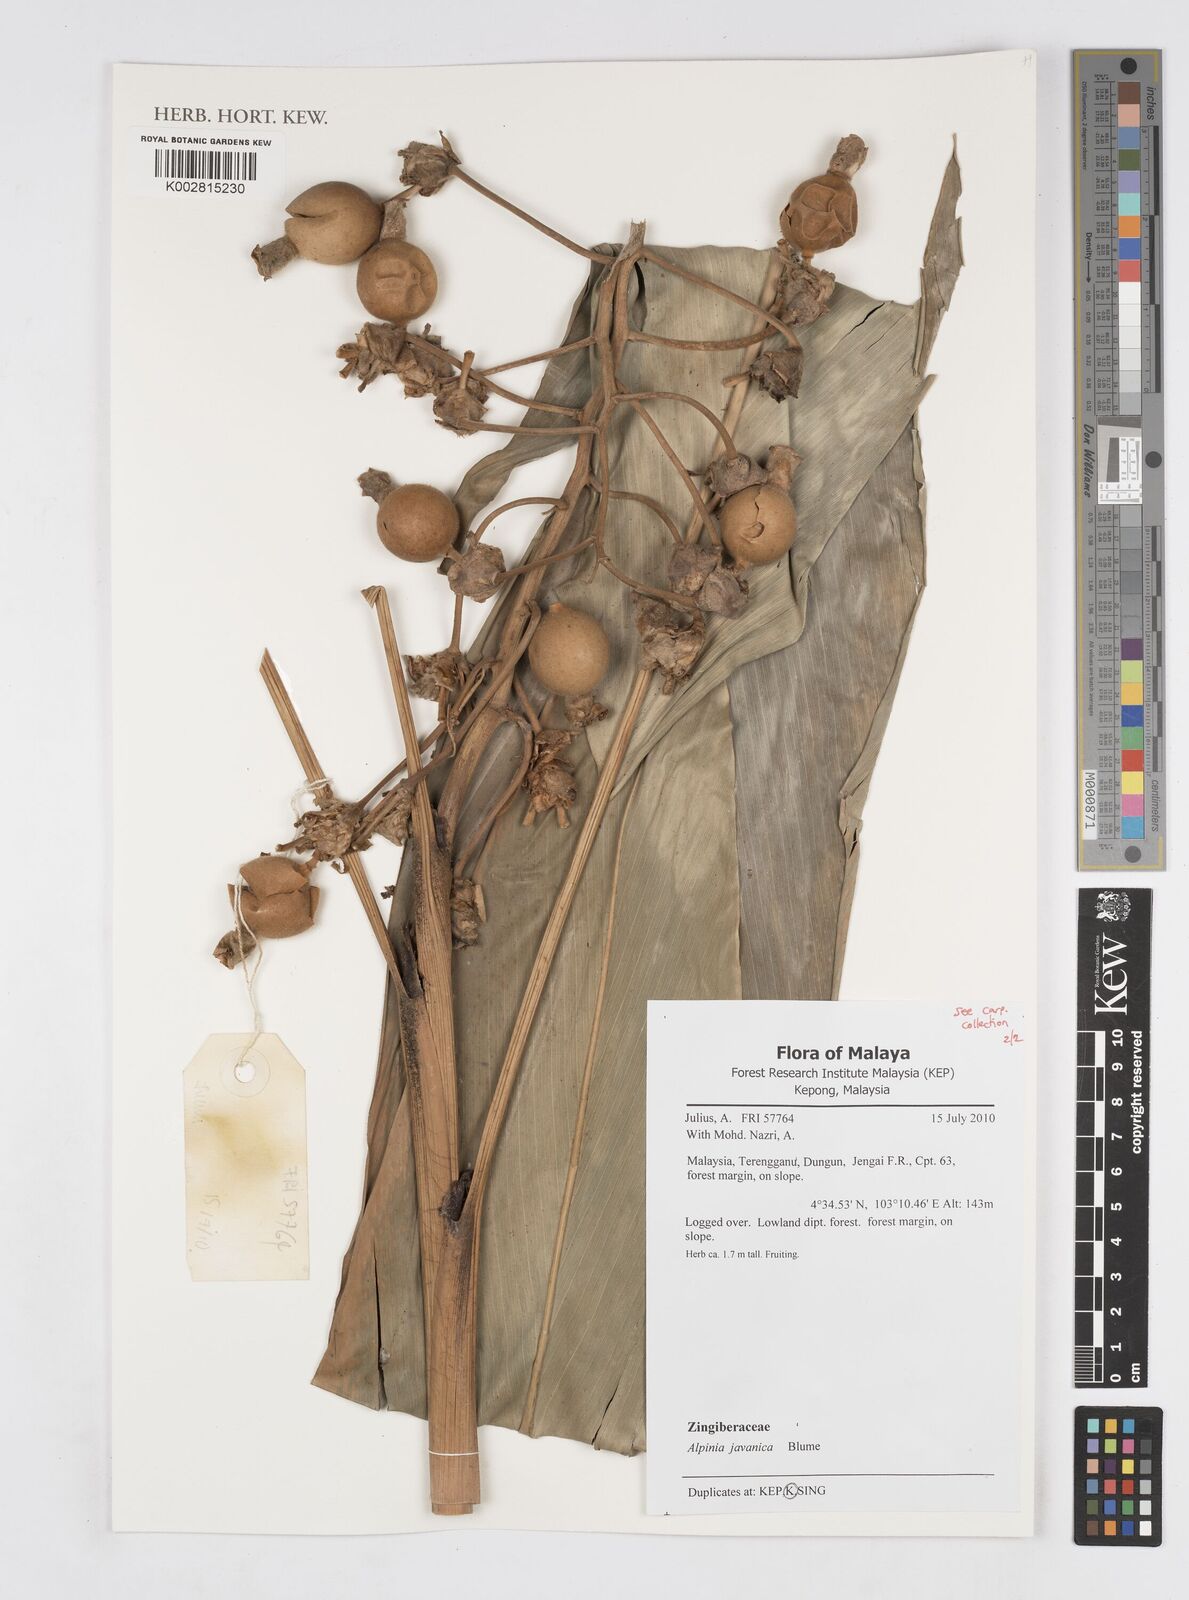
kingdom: Plantae
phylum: Tracheophyta
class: Liliopsida
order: Zingiberales
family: Zingiberaceae
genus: Alpinia
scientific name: Alpinia javanica
